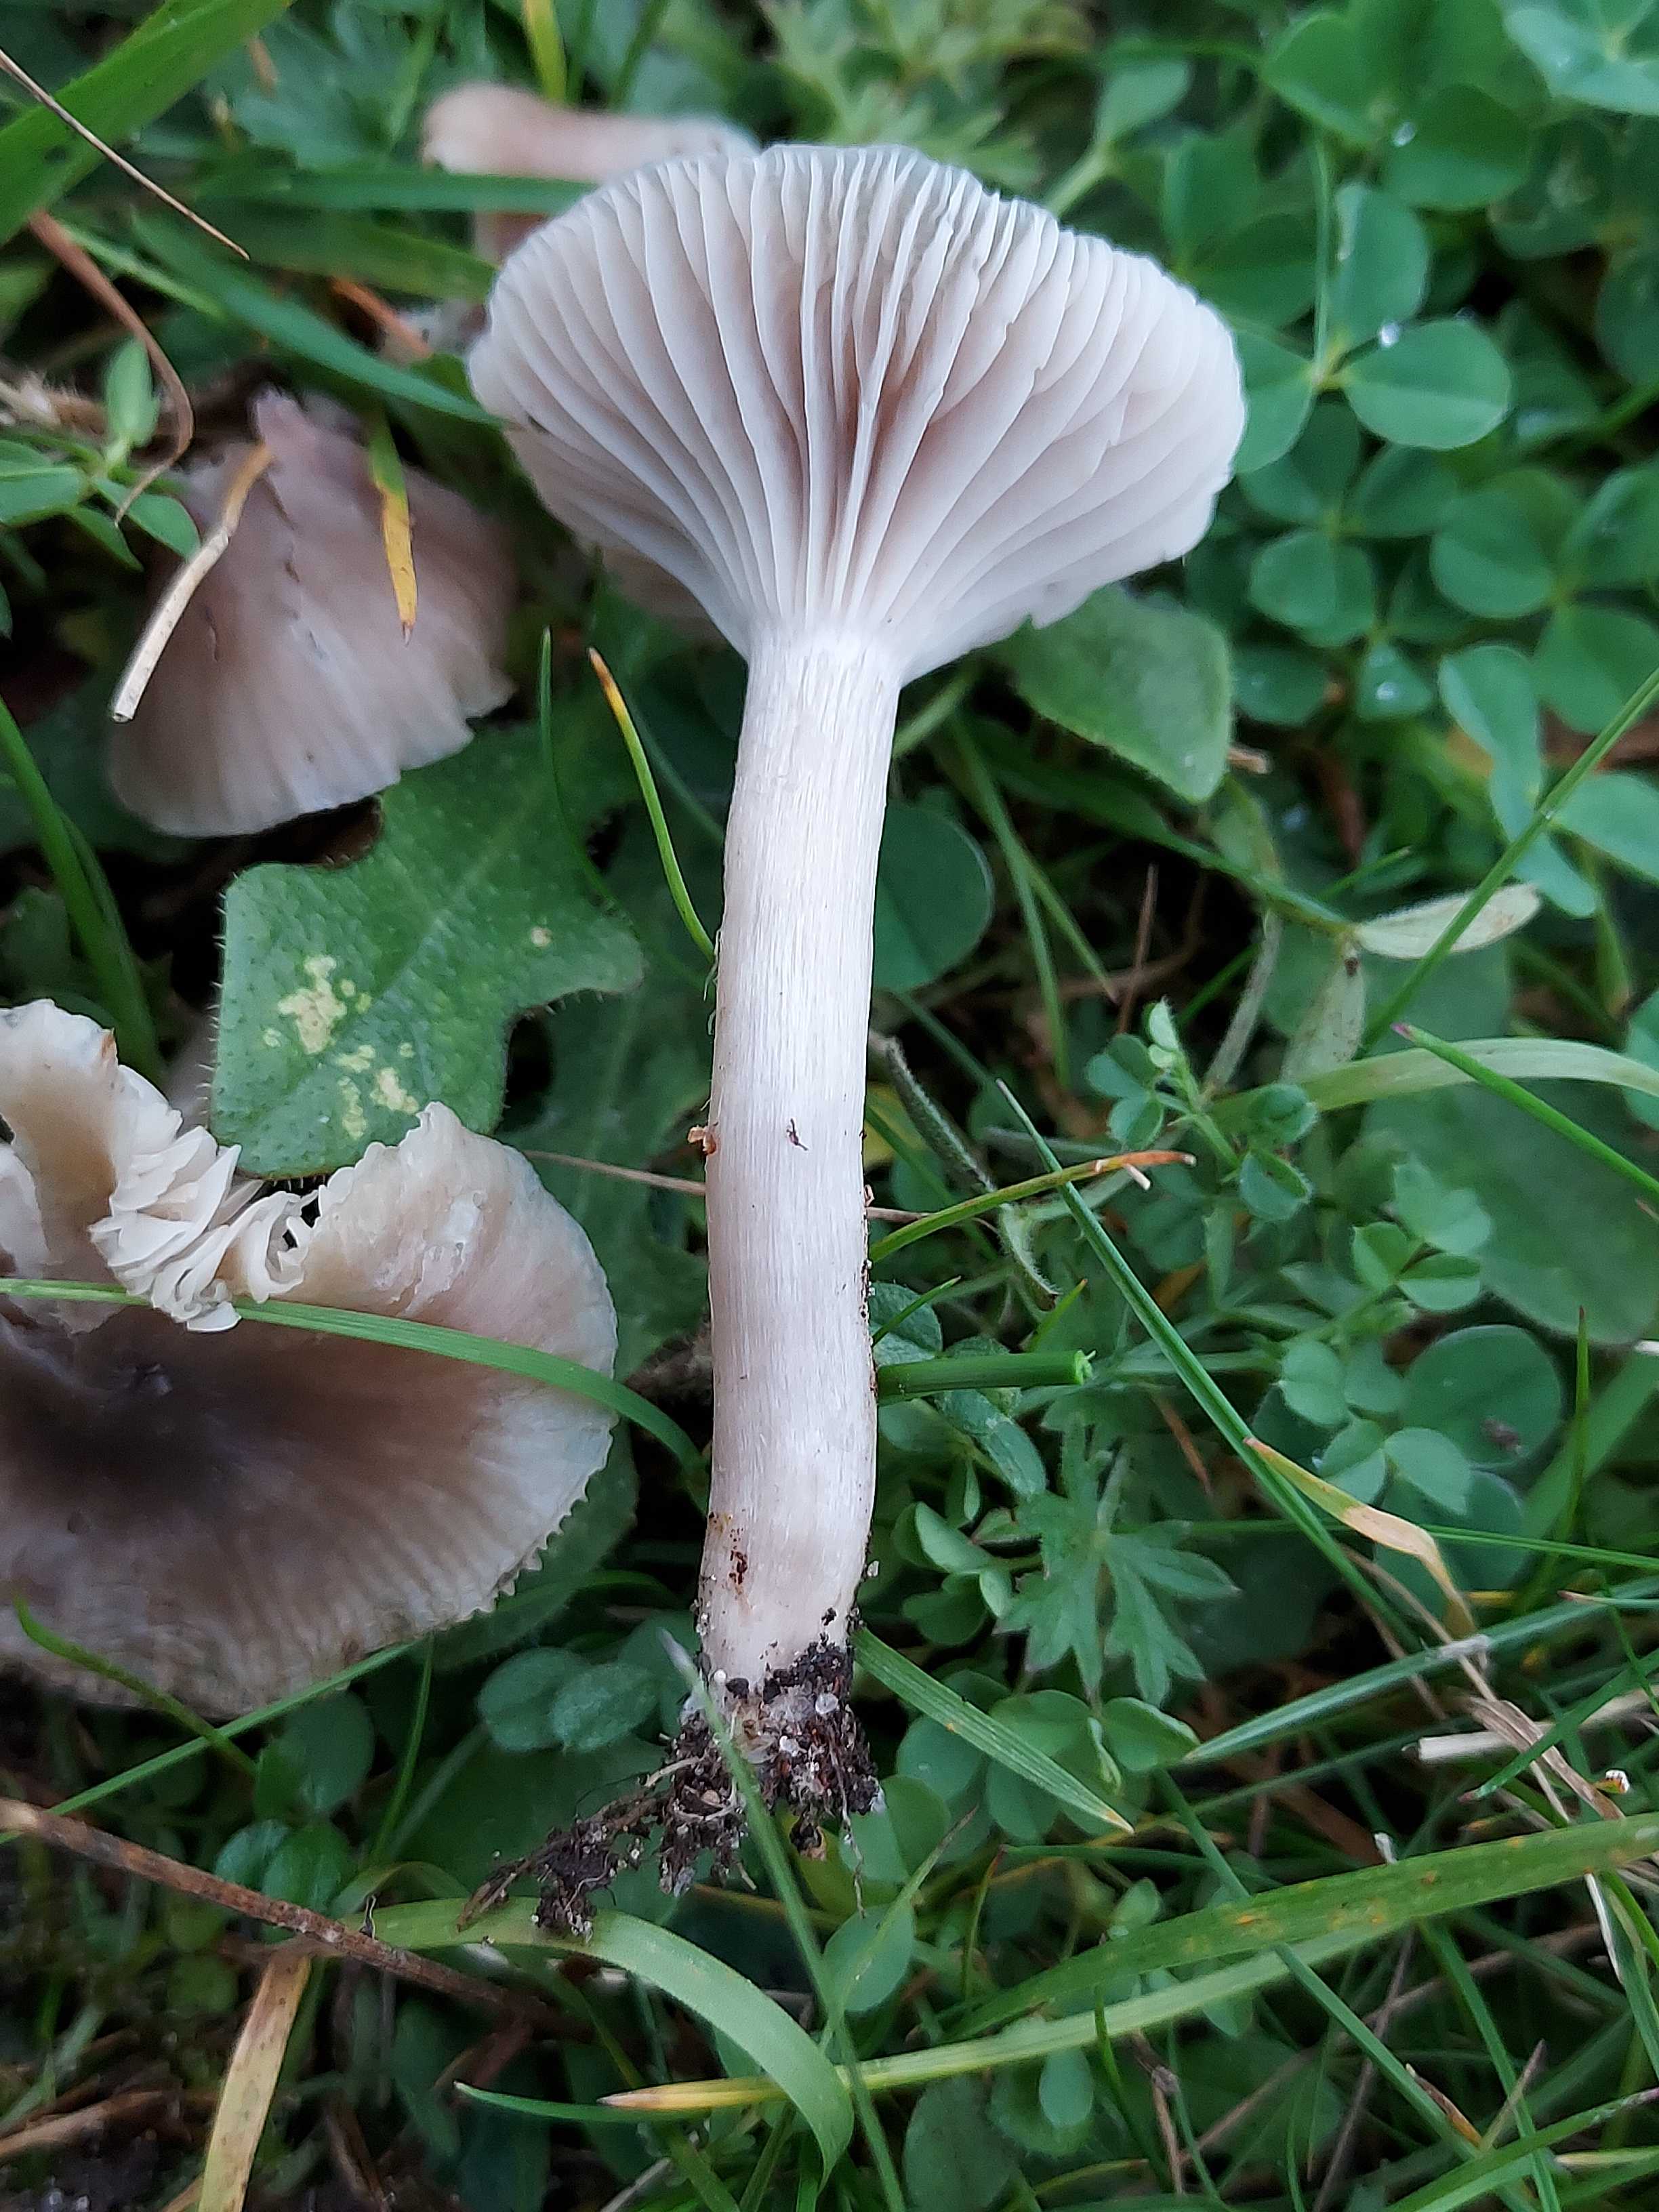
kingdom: Fungi
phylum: Basidiomycota
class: Agaricomycetes
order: Agaricales
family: Hygrophoraceae
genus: Cuphophyllus
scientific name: Cuphophyllus
